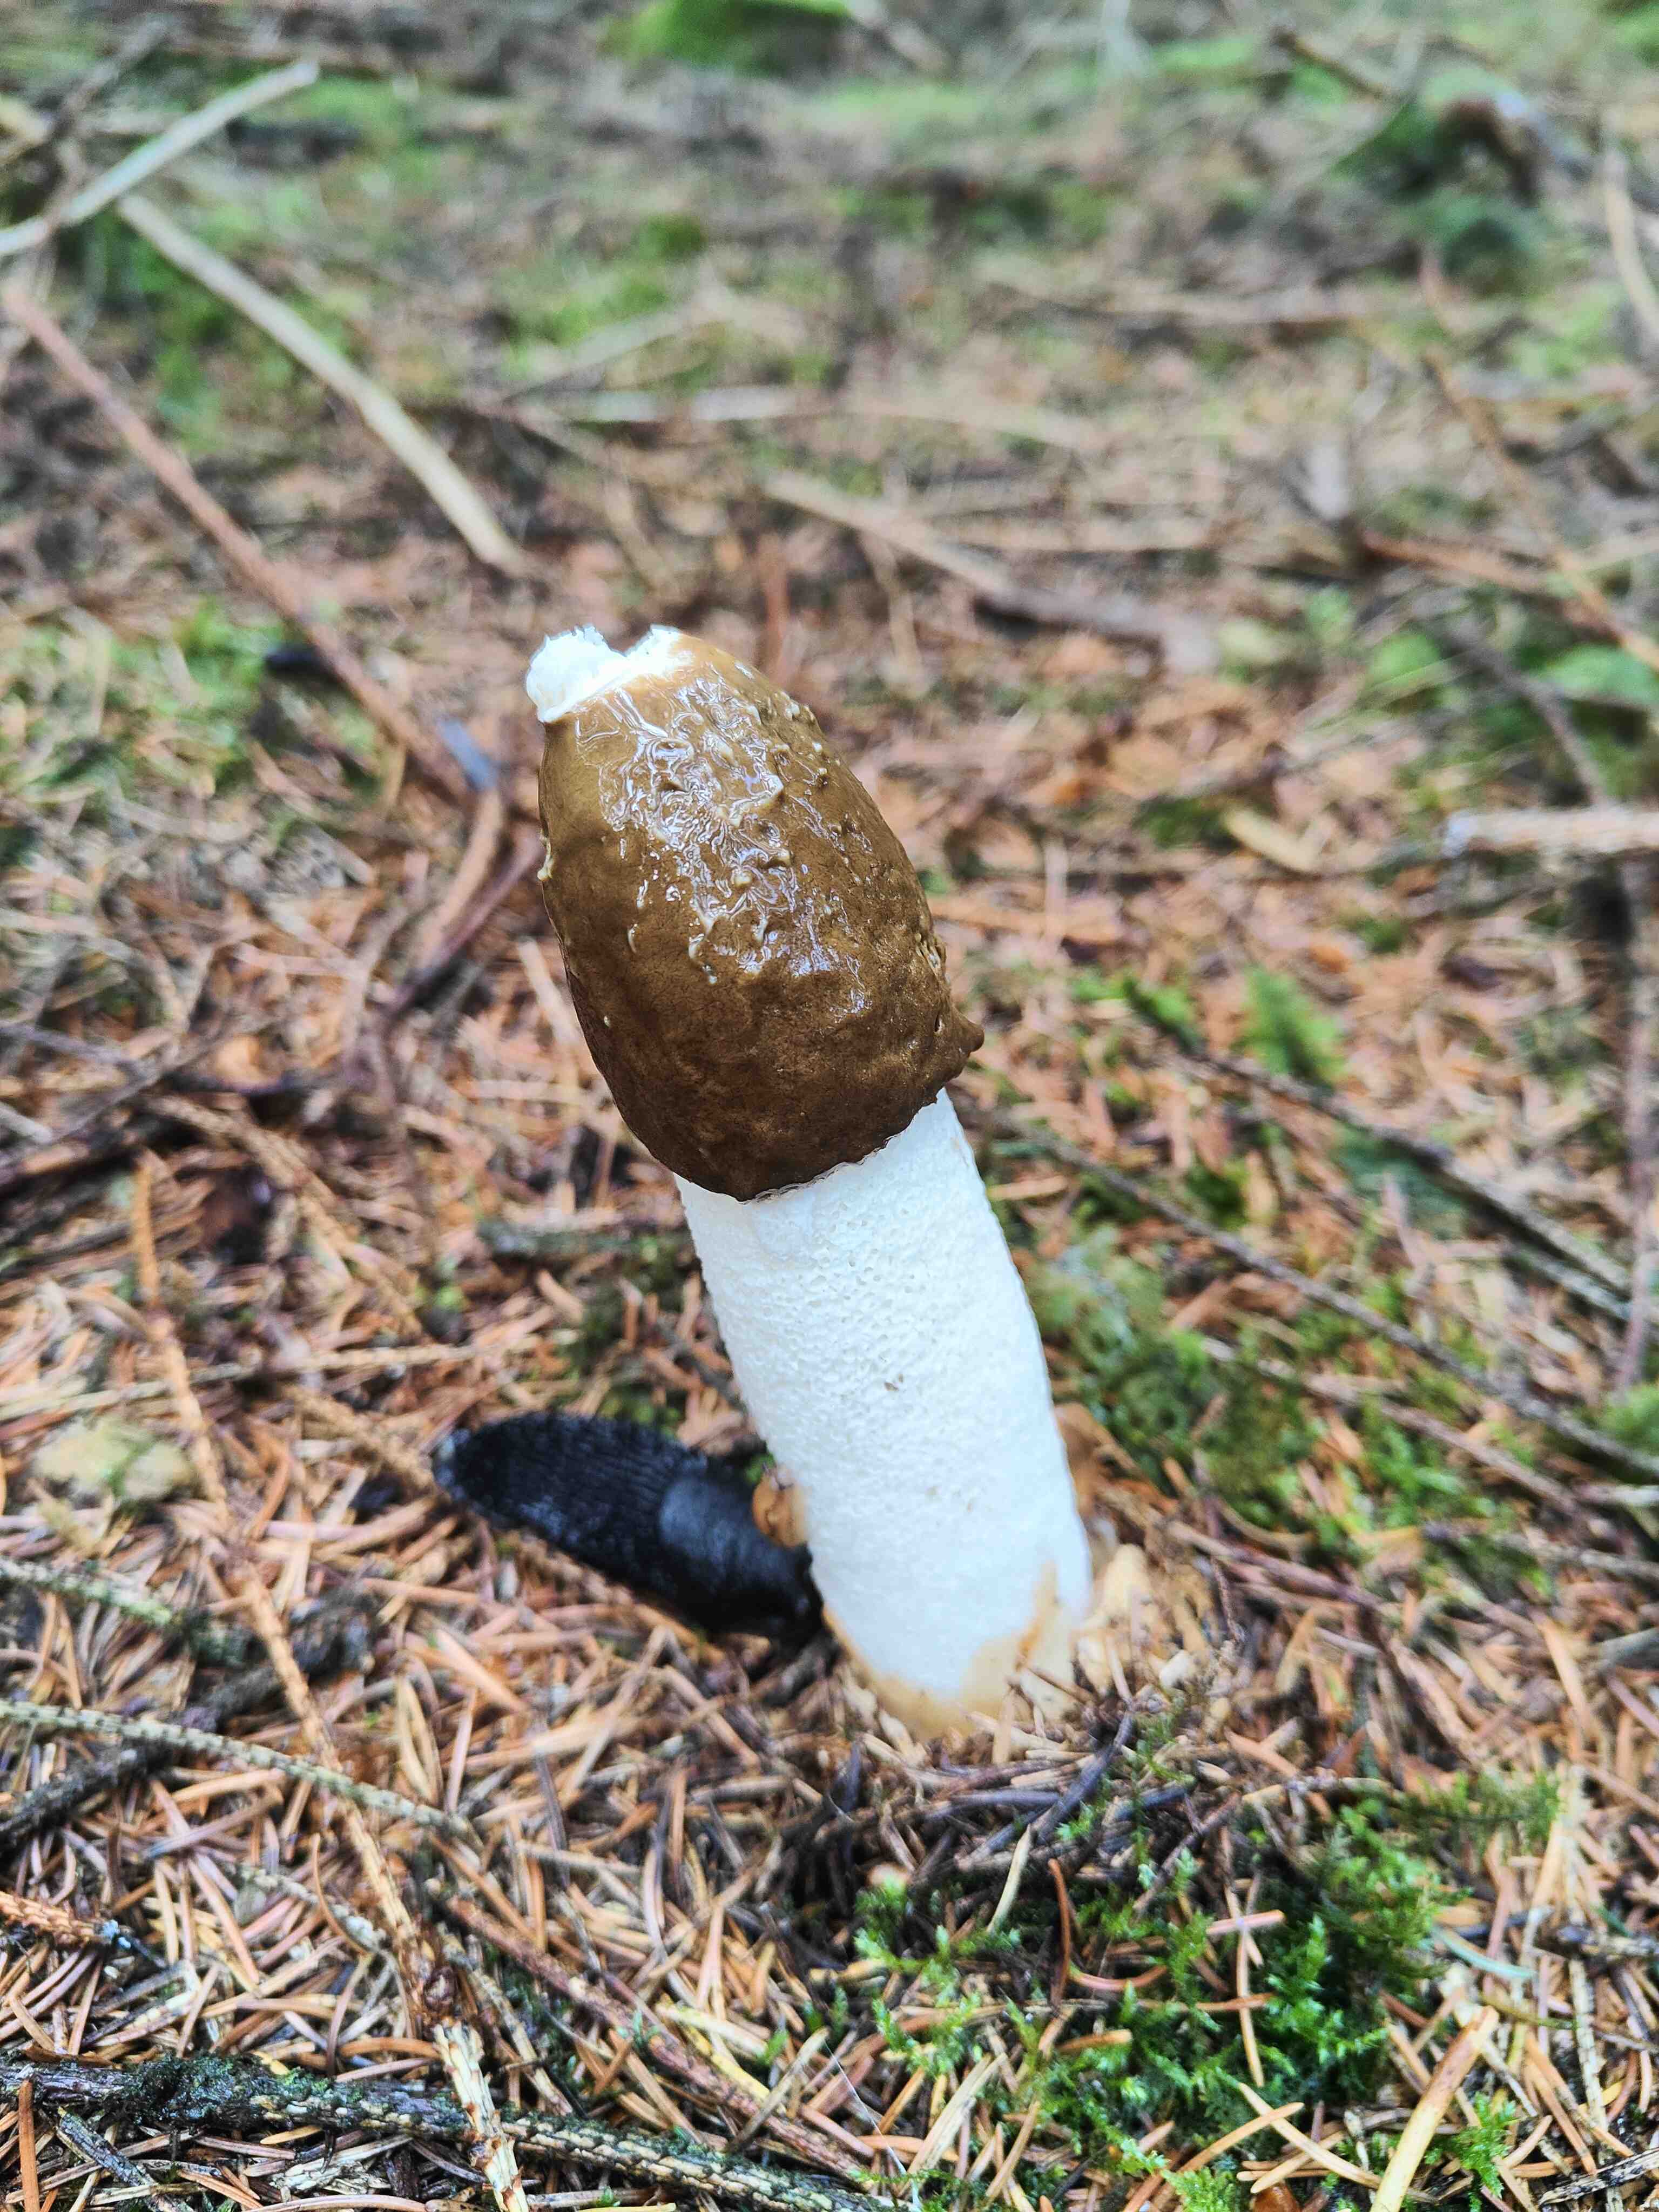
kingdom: Fungi
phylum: Basidiomycota
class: Agaricomycetes
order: Phallales
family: Phallaceae
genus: Phallus
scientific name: Phallus impudicus
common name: almindelig stinksvamp
